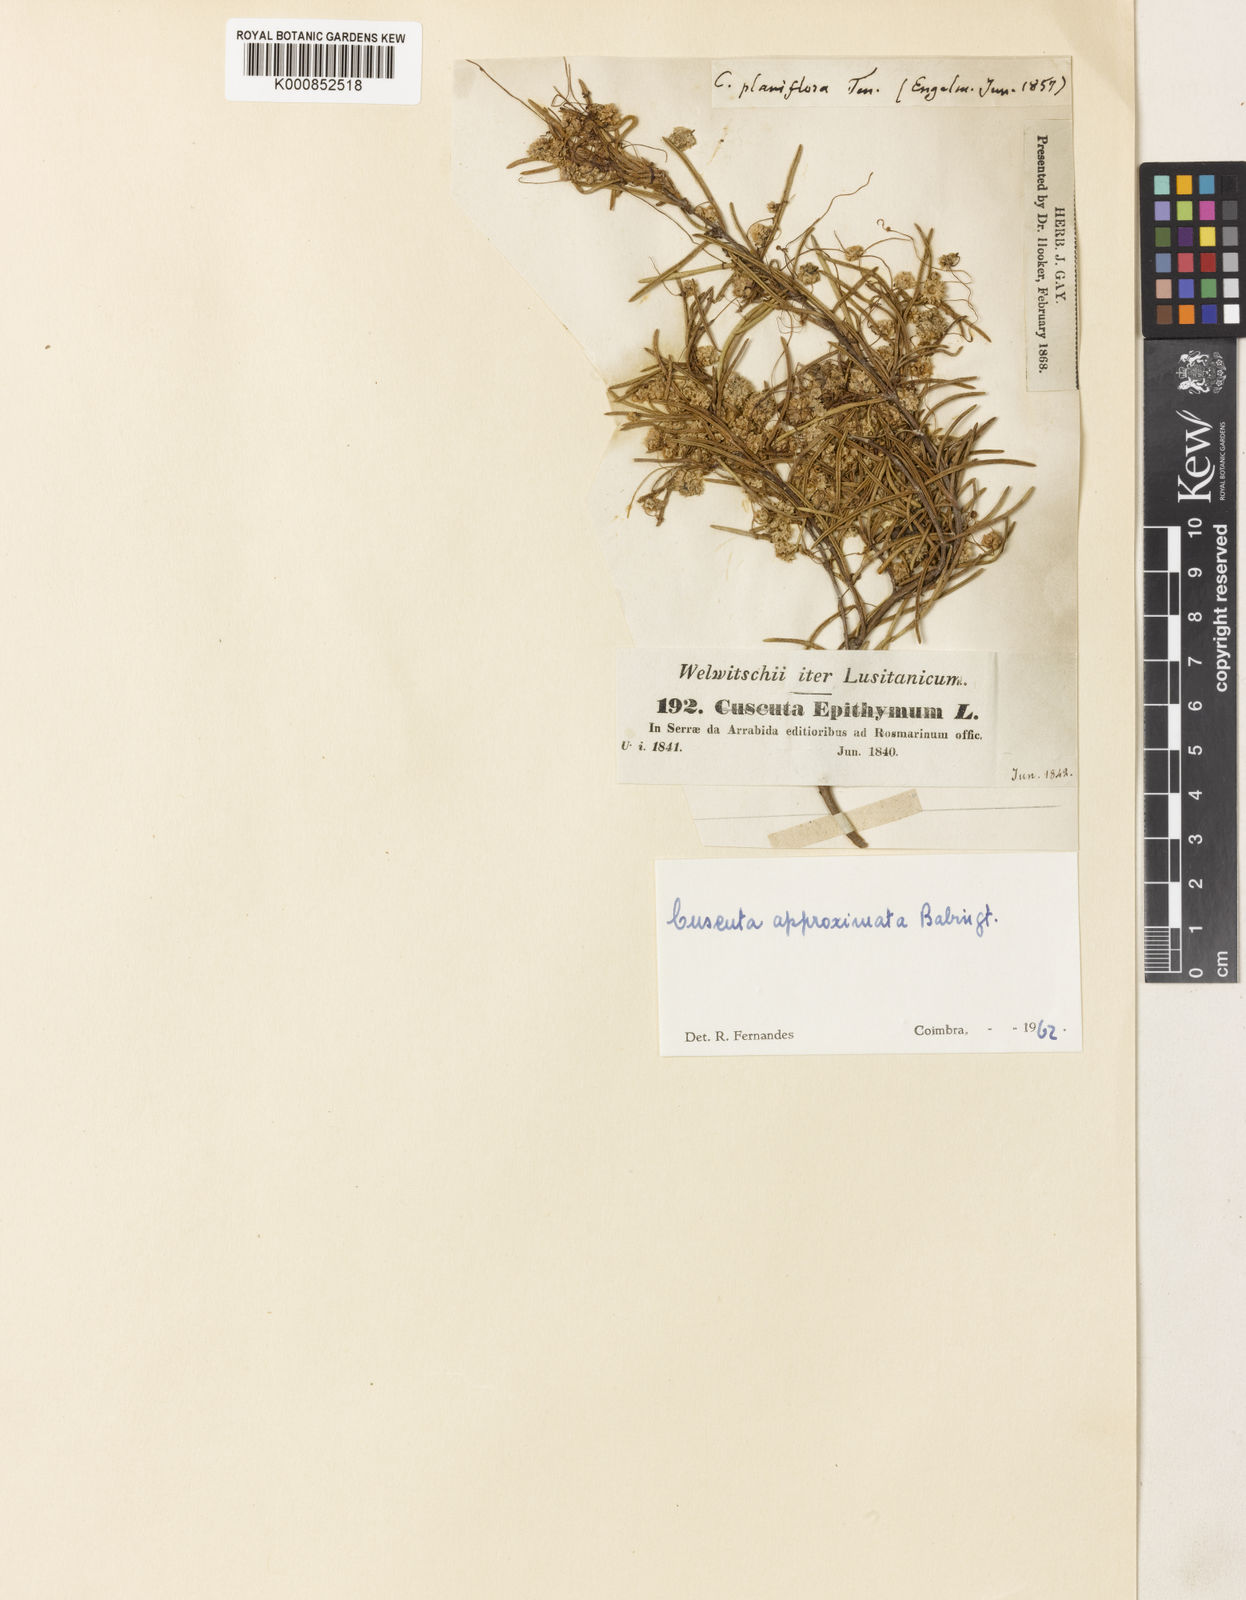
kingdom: Plantae
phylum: Tracheophyta
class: Magnoliopsida
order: Solanales
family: Convolvulaceae
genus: Cuscuta
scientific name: Cuscuta approximata
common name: Alfalfa dodder
